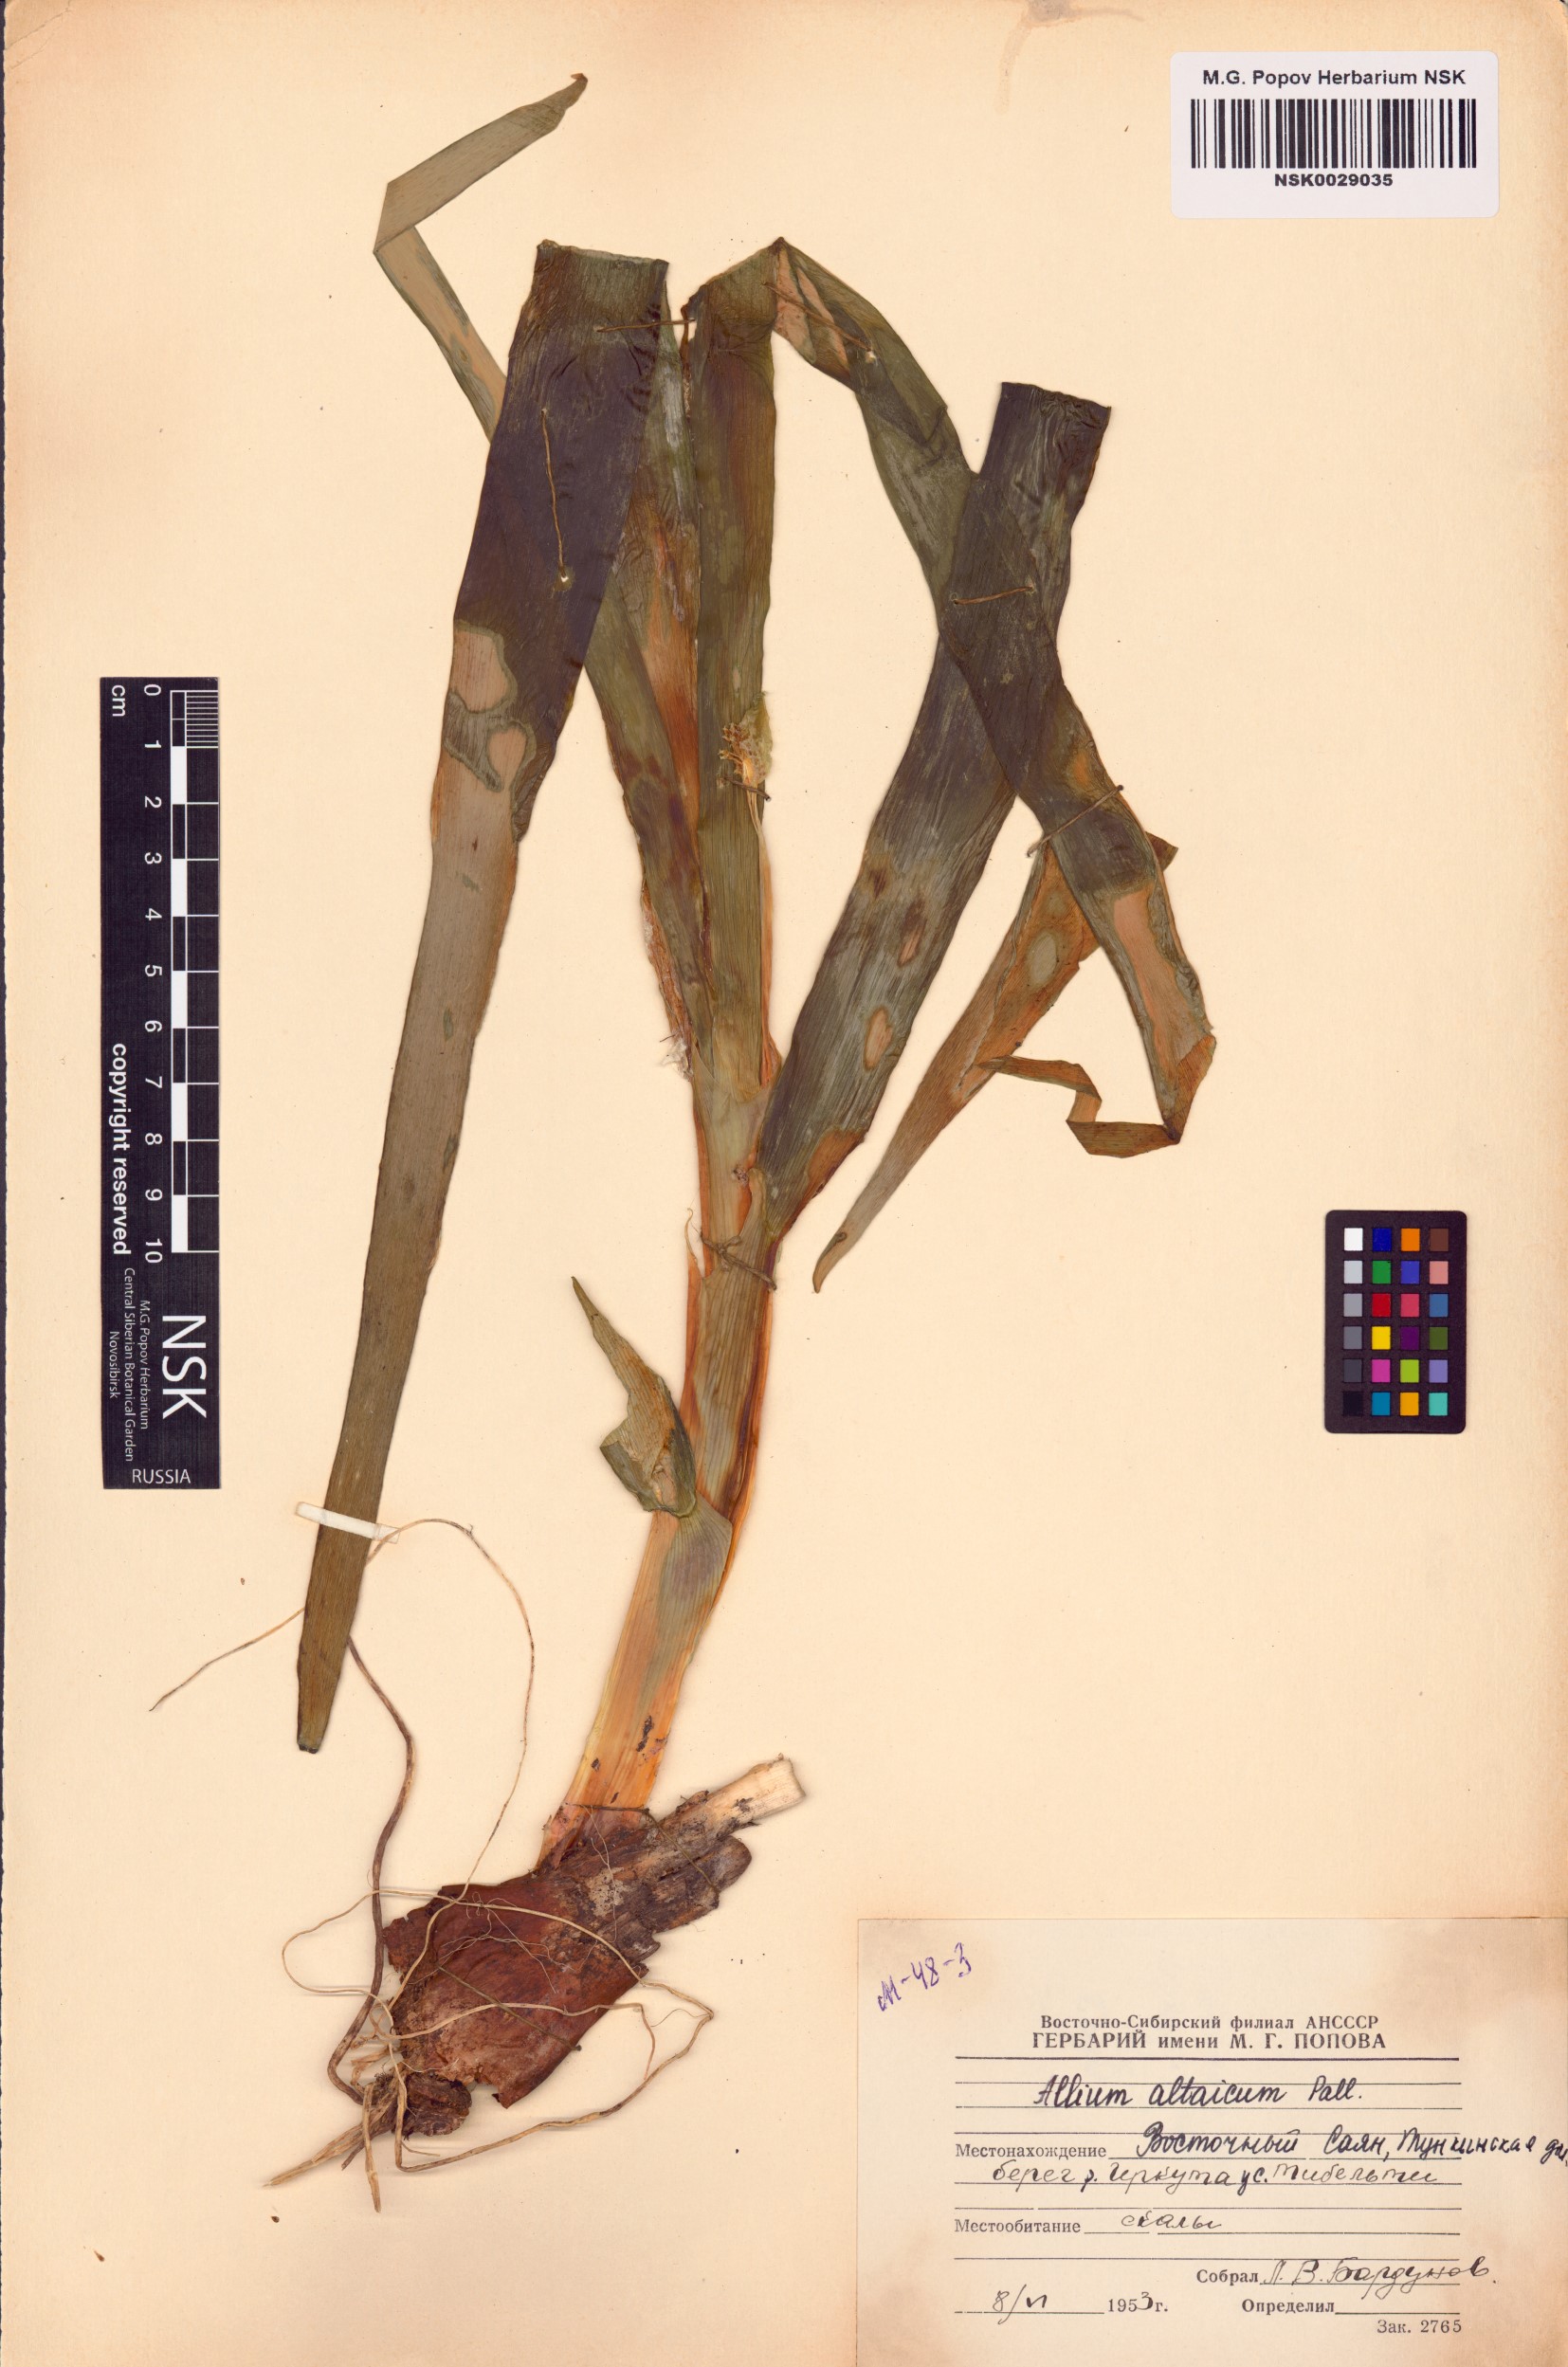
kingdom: Plantae
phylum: Tracheophyta
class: Liliopsida
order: Asparagales
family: Amaryllidaceae
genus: Allium
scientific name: Allium altaicum
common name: Altai onion
